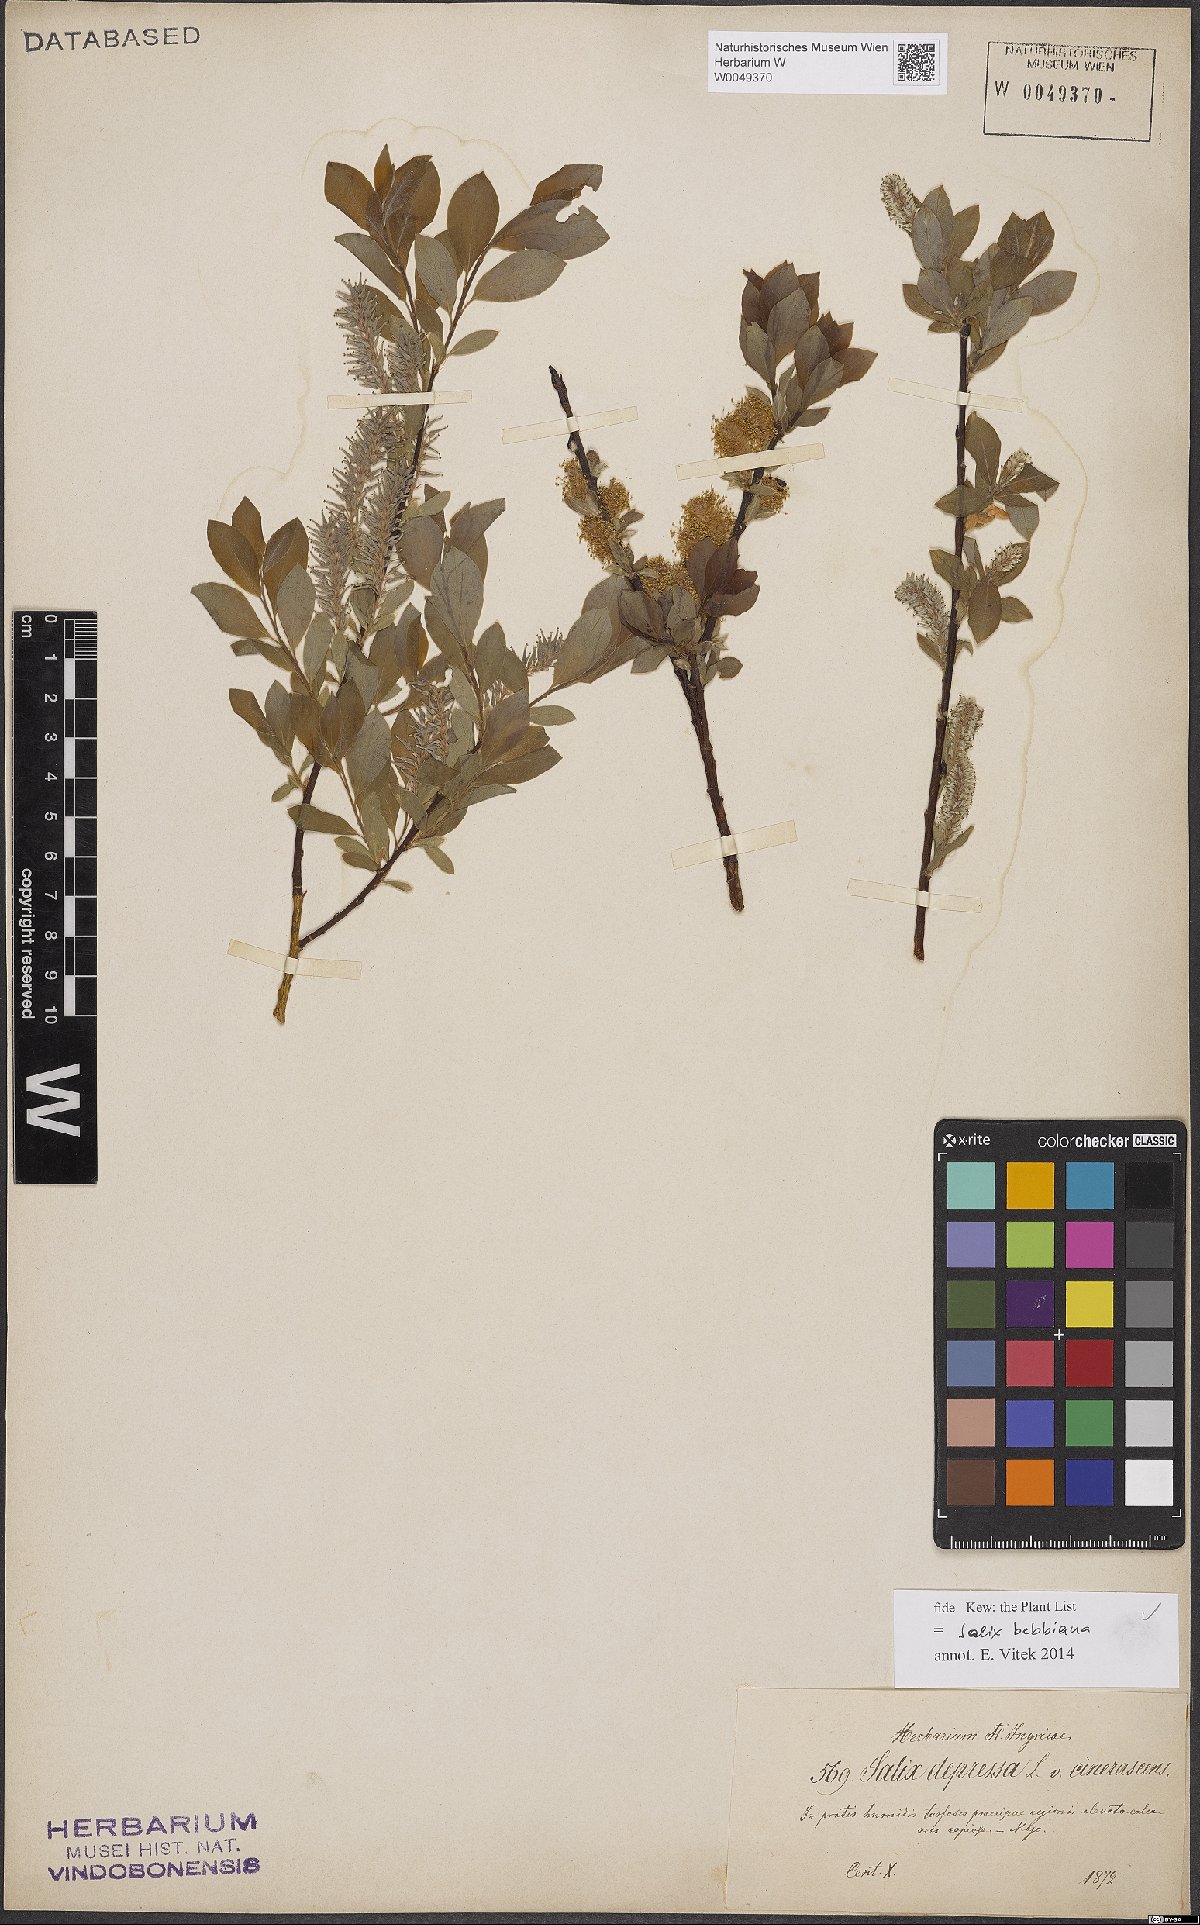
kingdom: Plantae
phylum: Tracheophyta
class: Magnoliopsida
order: Malpighiales
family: Salicaceae
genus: Salix
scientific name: Salix bebbiana
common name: Bebb's willow
